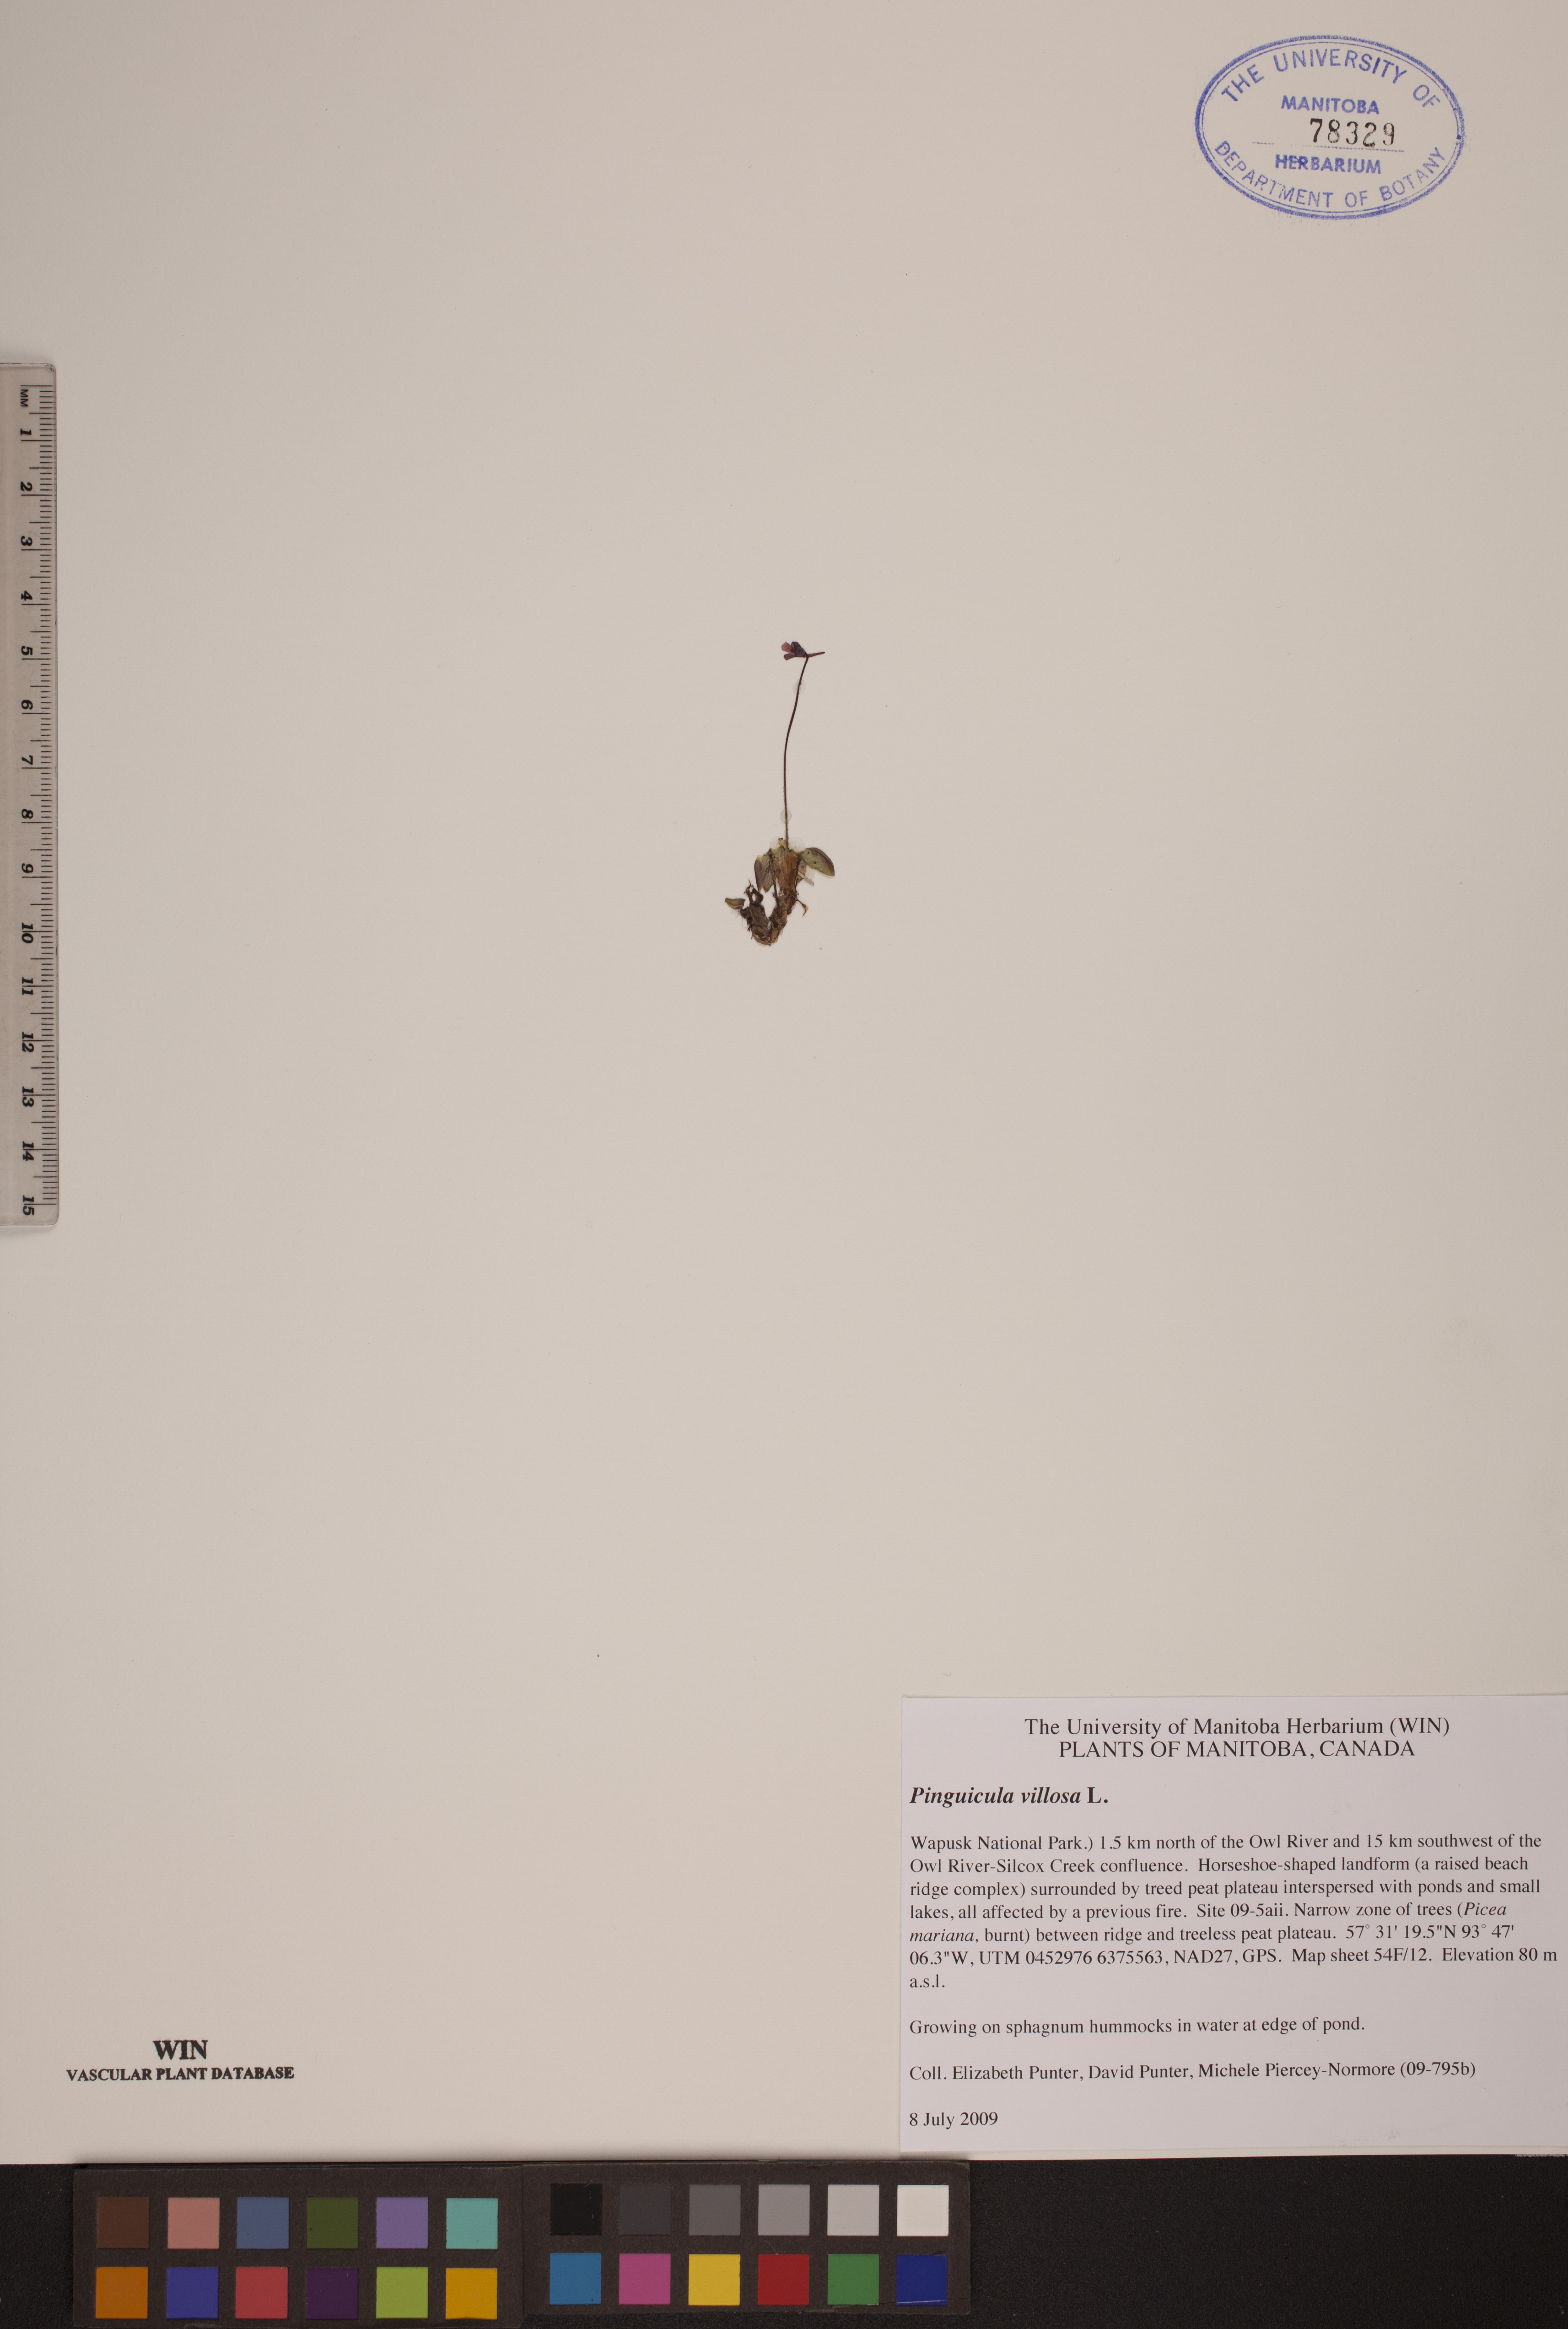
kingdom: Plantae
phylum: Tracheophyta
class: Magnoliopsida
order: Lamiales
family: Lentibulariaceae
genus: Pinguicula
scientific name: Pinguicula villosa
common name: Hairy butterwort
